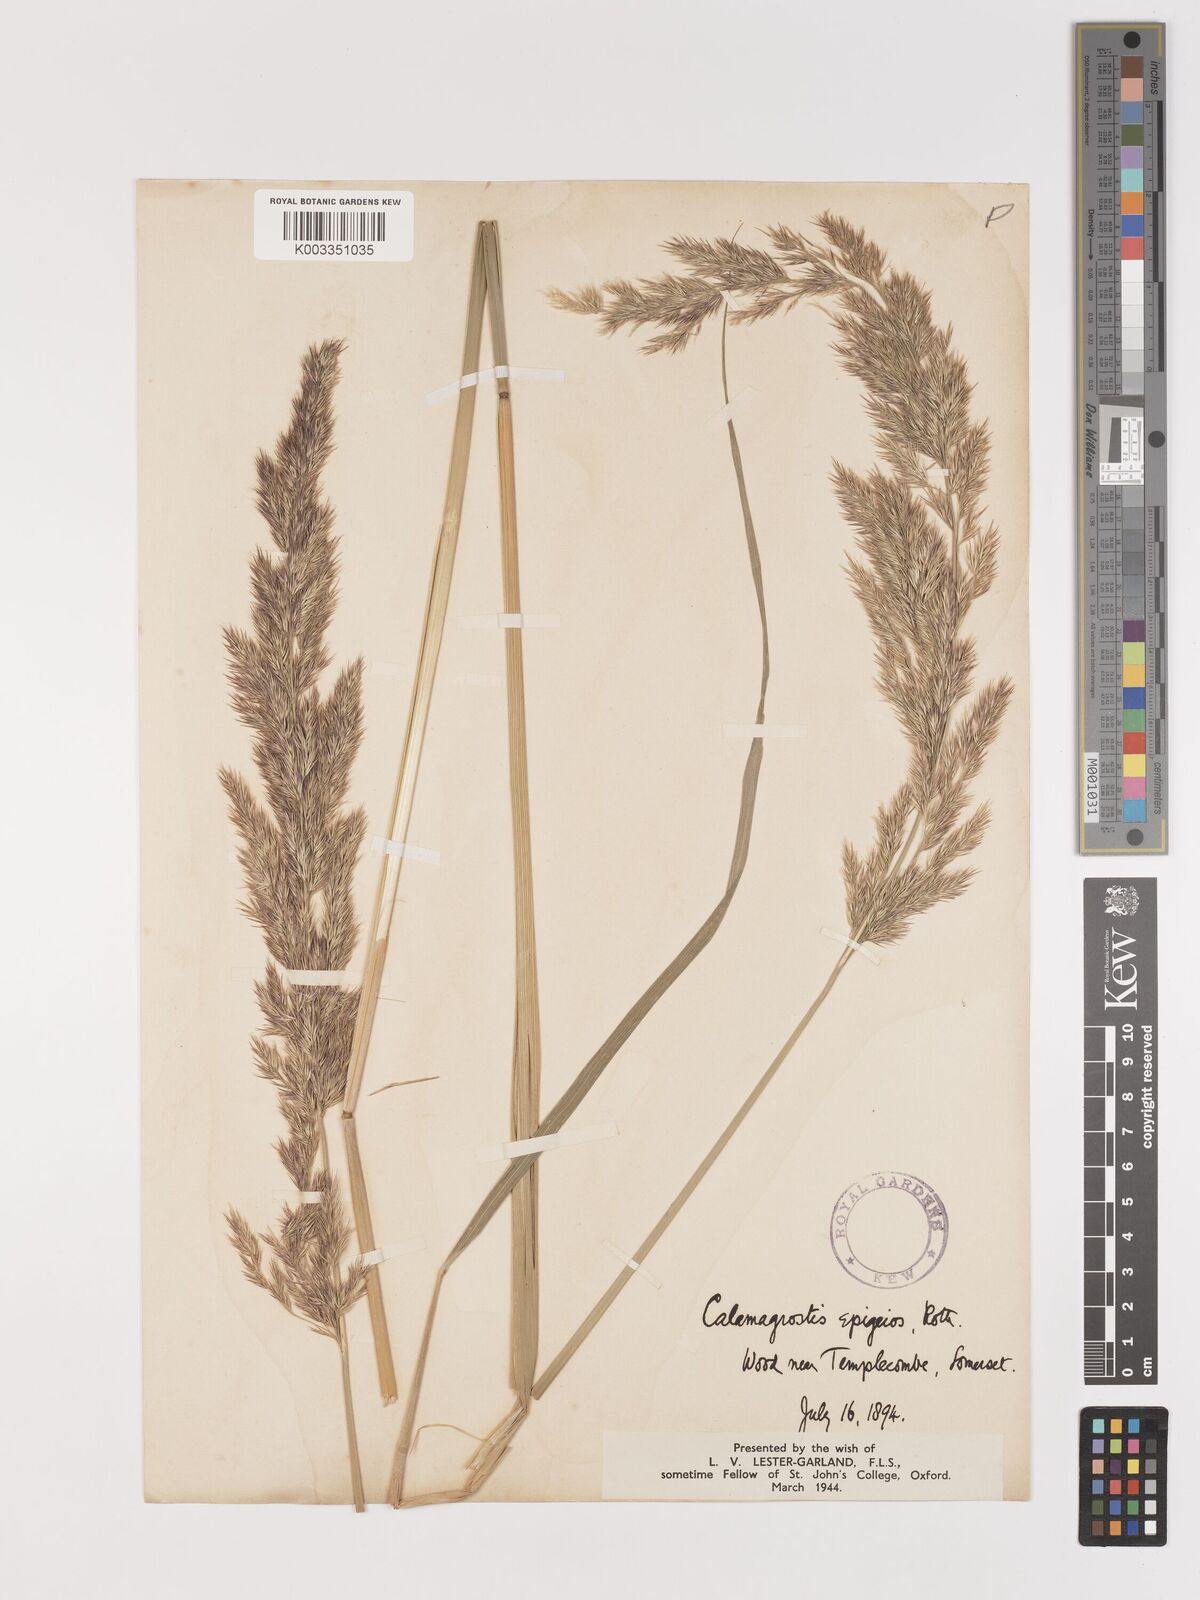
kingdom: Plantae
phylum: Tracheophyta
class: Liliopsida
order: Poales
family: Poaceae
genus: Calamagrostis
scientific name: Calamagrostis epigejos
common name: Wood small-reed
